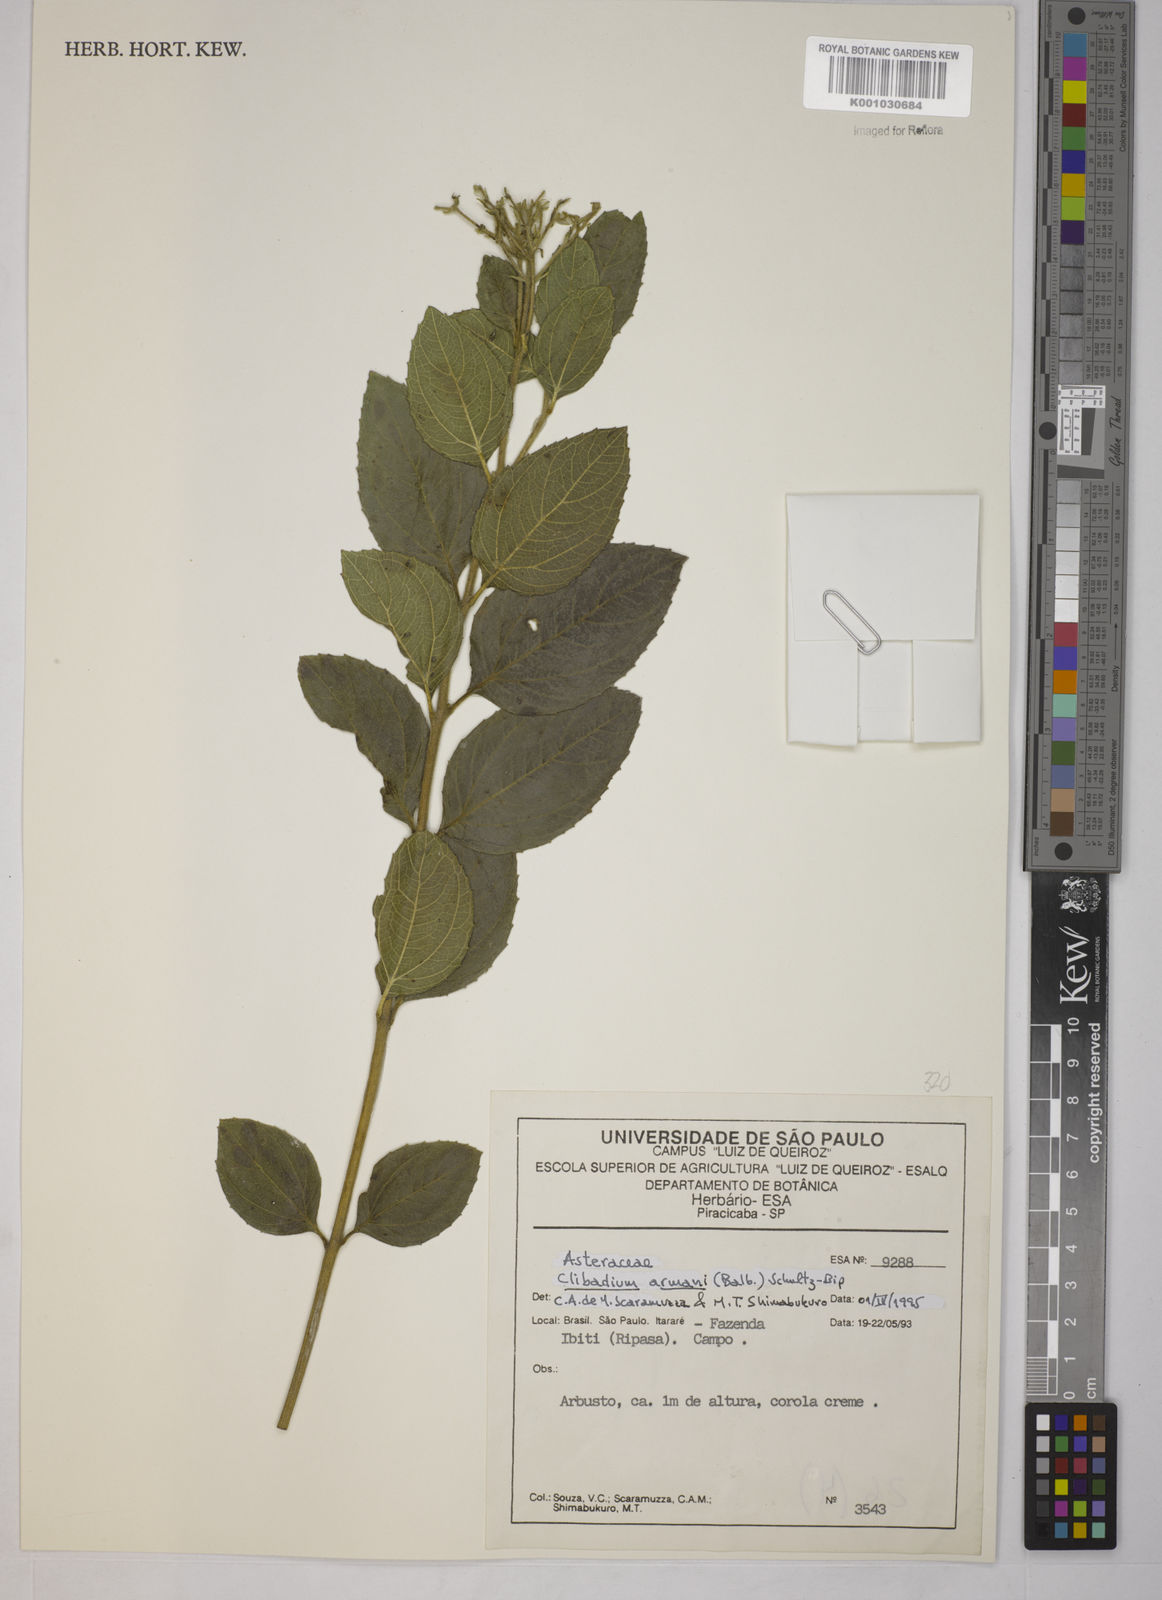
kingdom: Plantae
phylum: Tracheophyta
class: Magnoliopsida
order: Asterales
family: Asteraceae
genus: Clibadium
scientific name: Clibadium armanii
